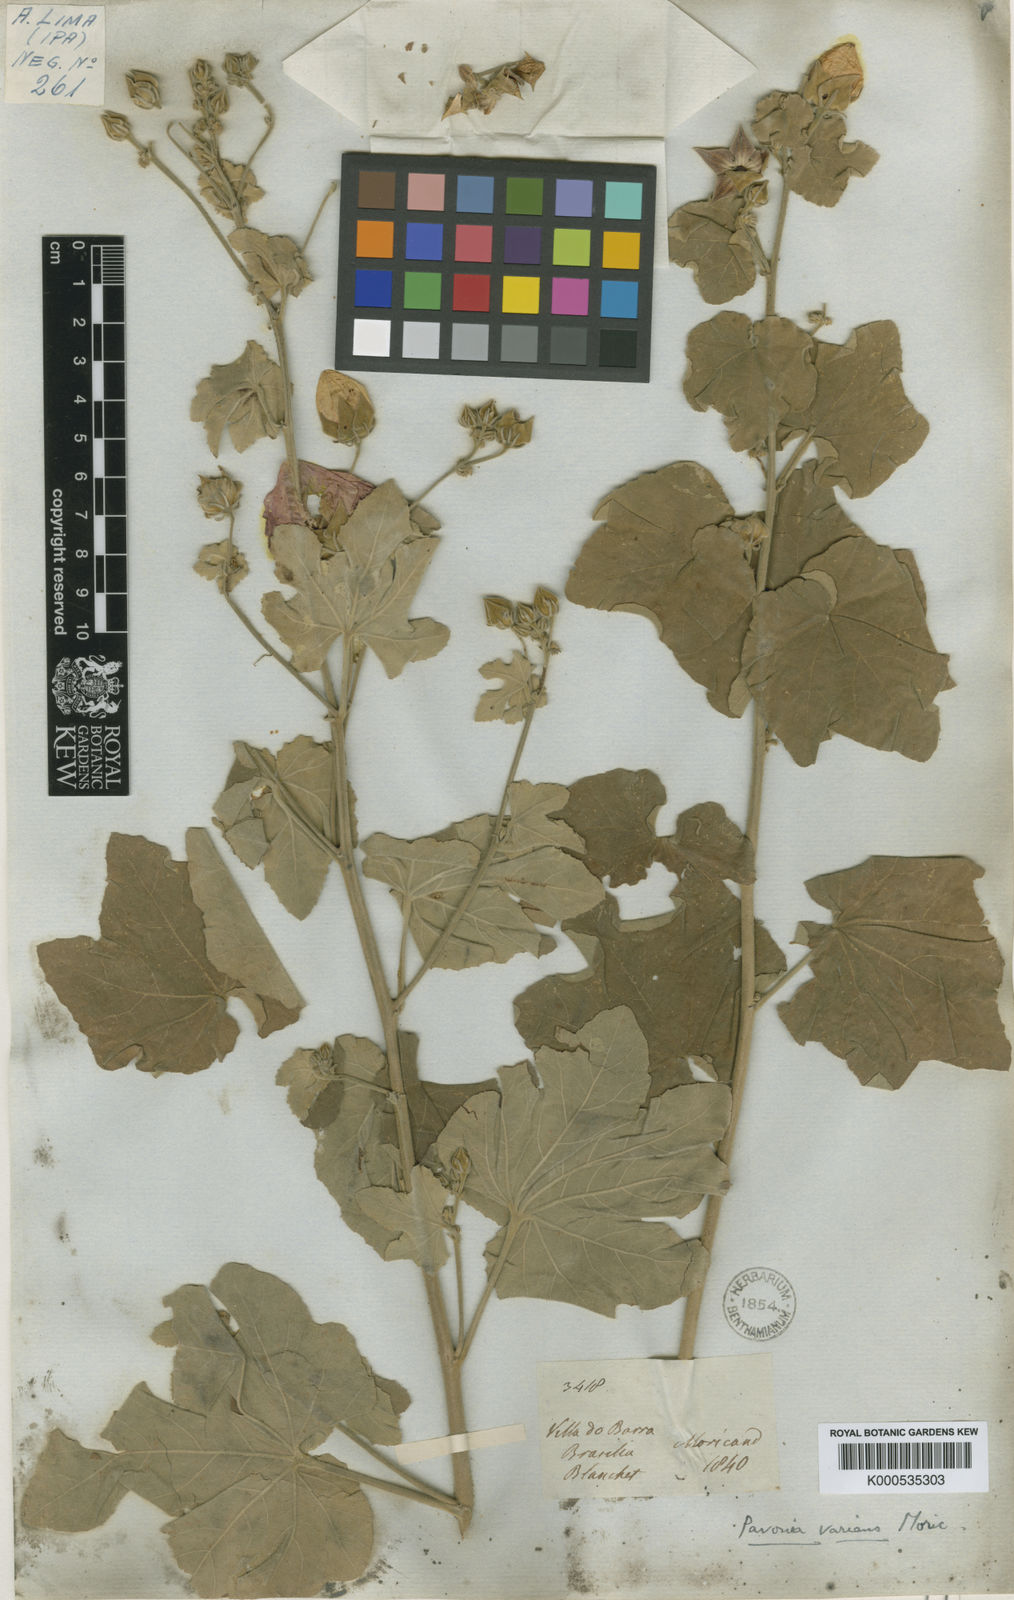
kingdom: Plantae
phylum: Tracheophyta
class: Magnoliopsida
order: Malvales
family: Malvaceae
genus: Pavonia
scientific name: Pavonia varians
